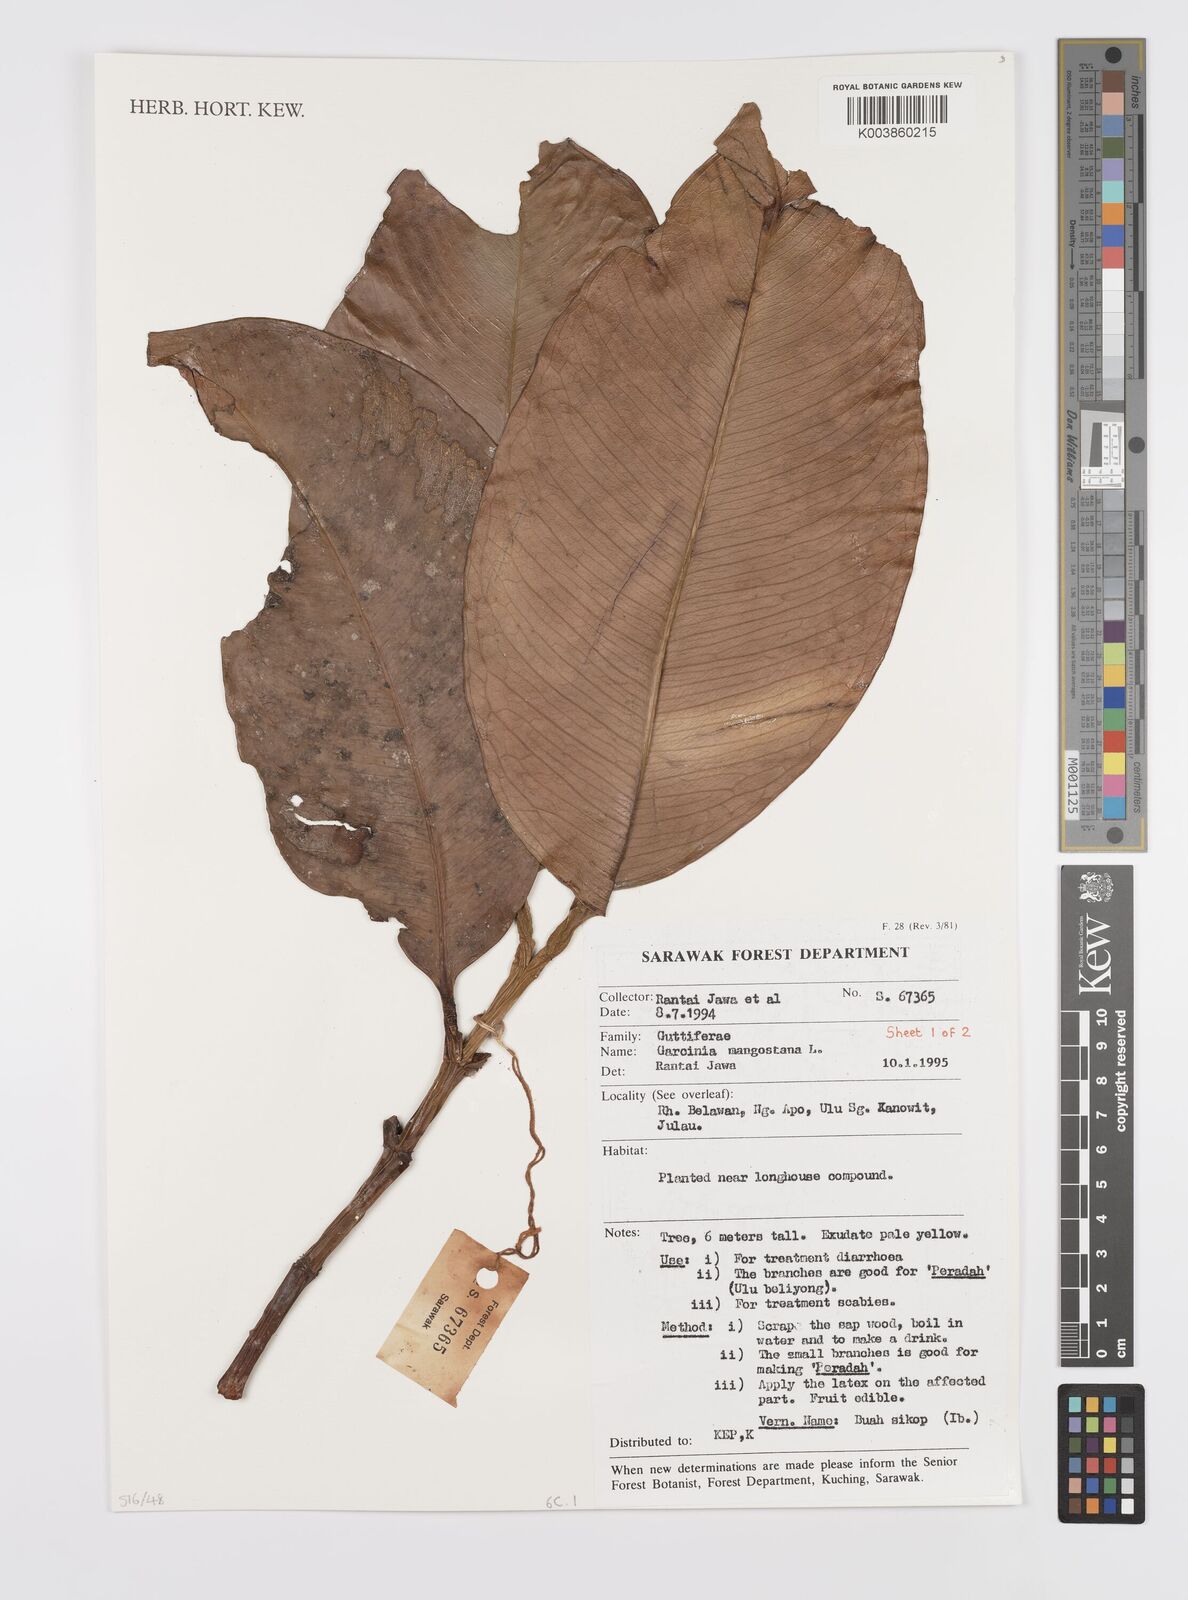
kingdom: Plantae
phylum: Tracheophyta
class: Magnoliopsida
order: Malpighiales
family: Clusiaceae
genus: Garcinia
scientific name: Garcinia mangostana
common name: Mangosteen
